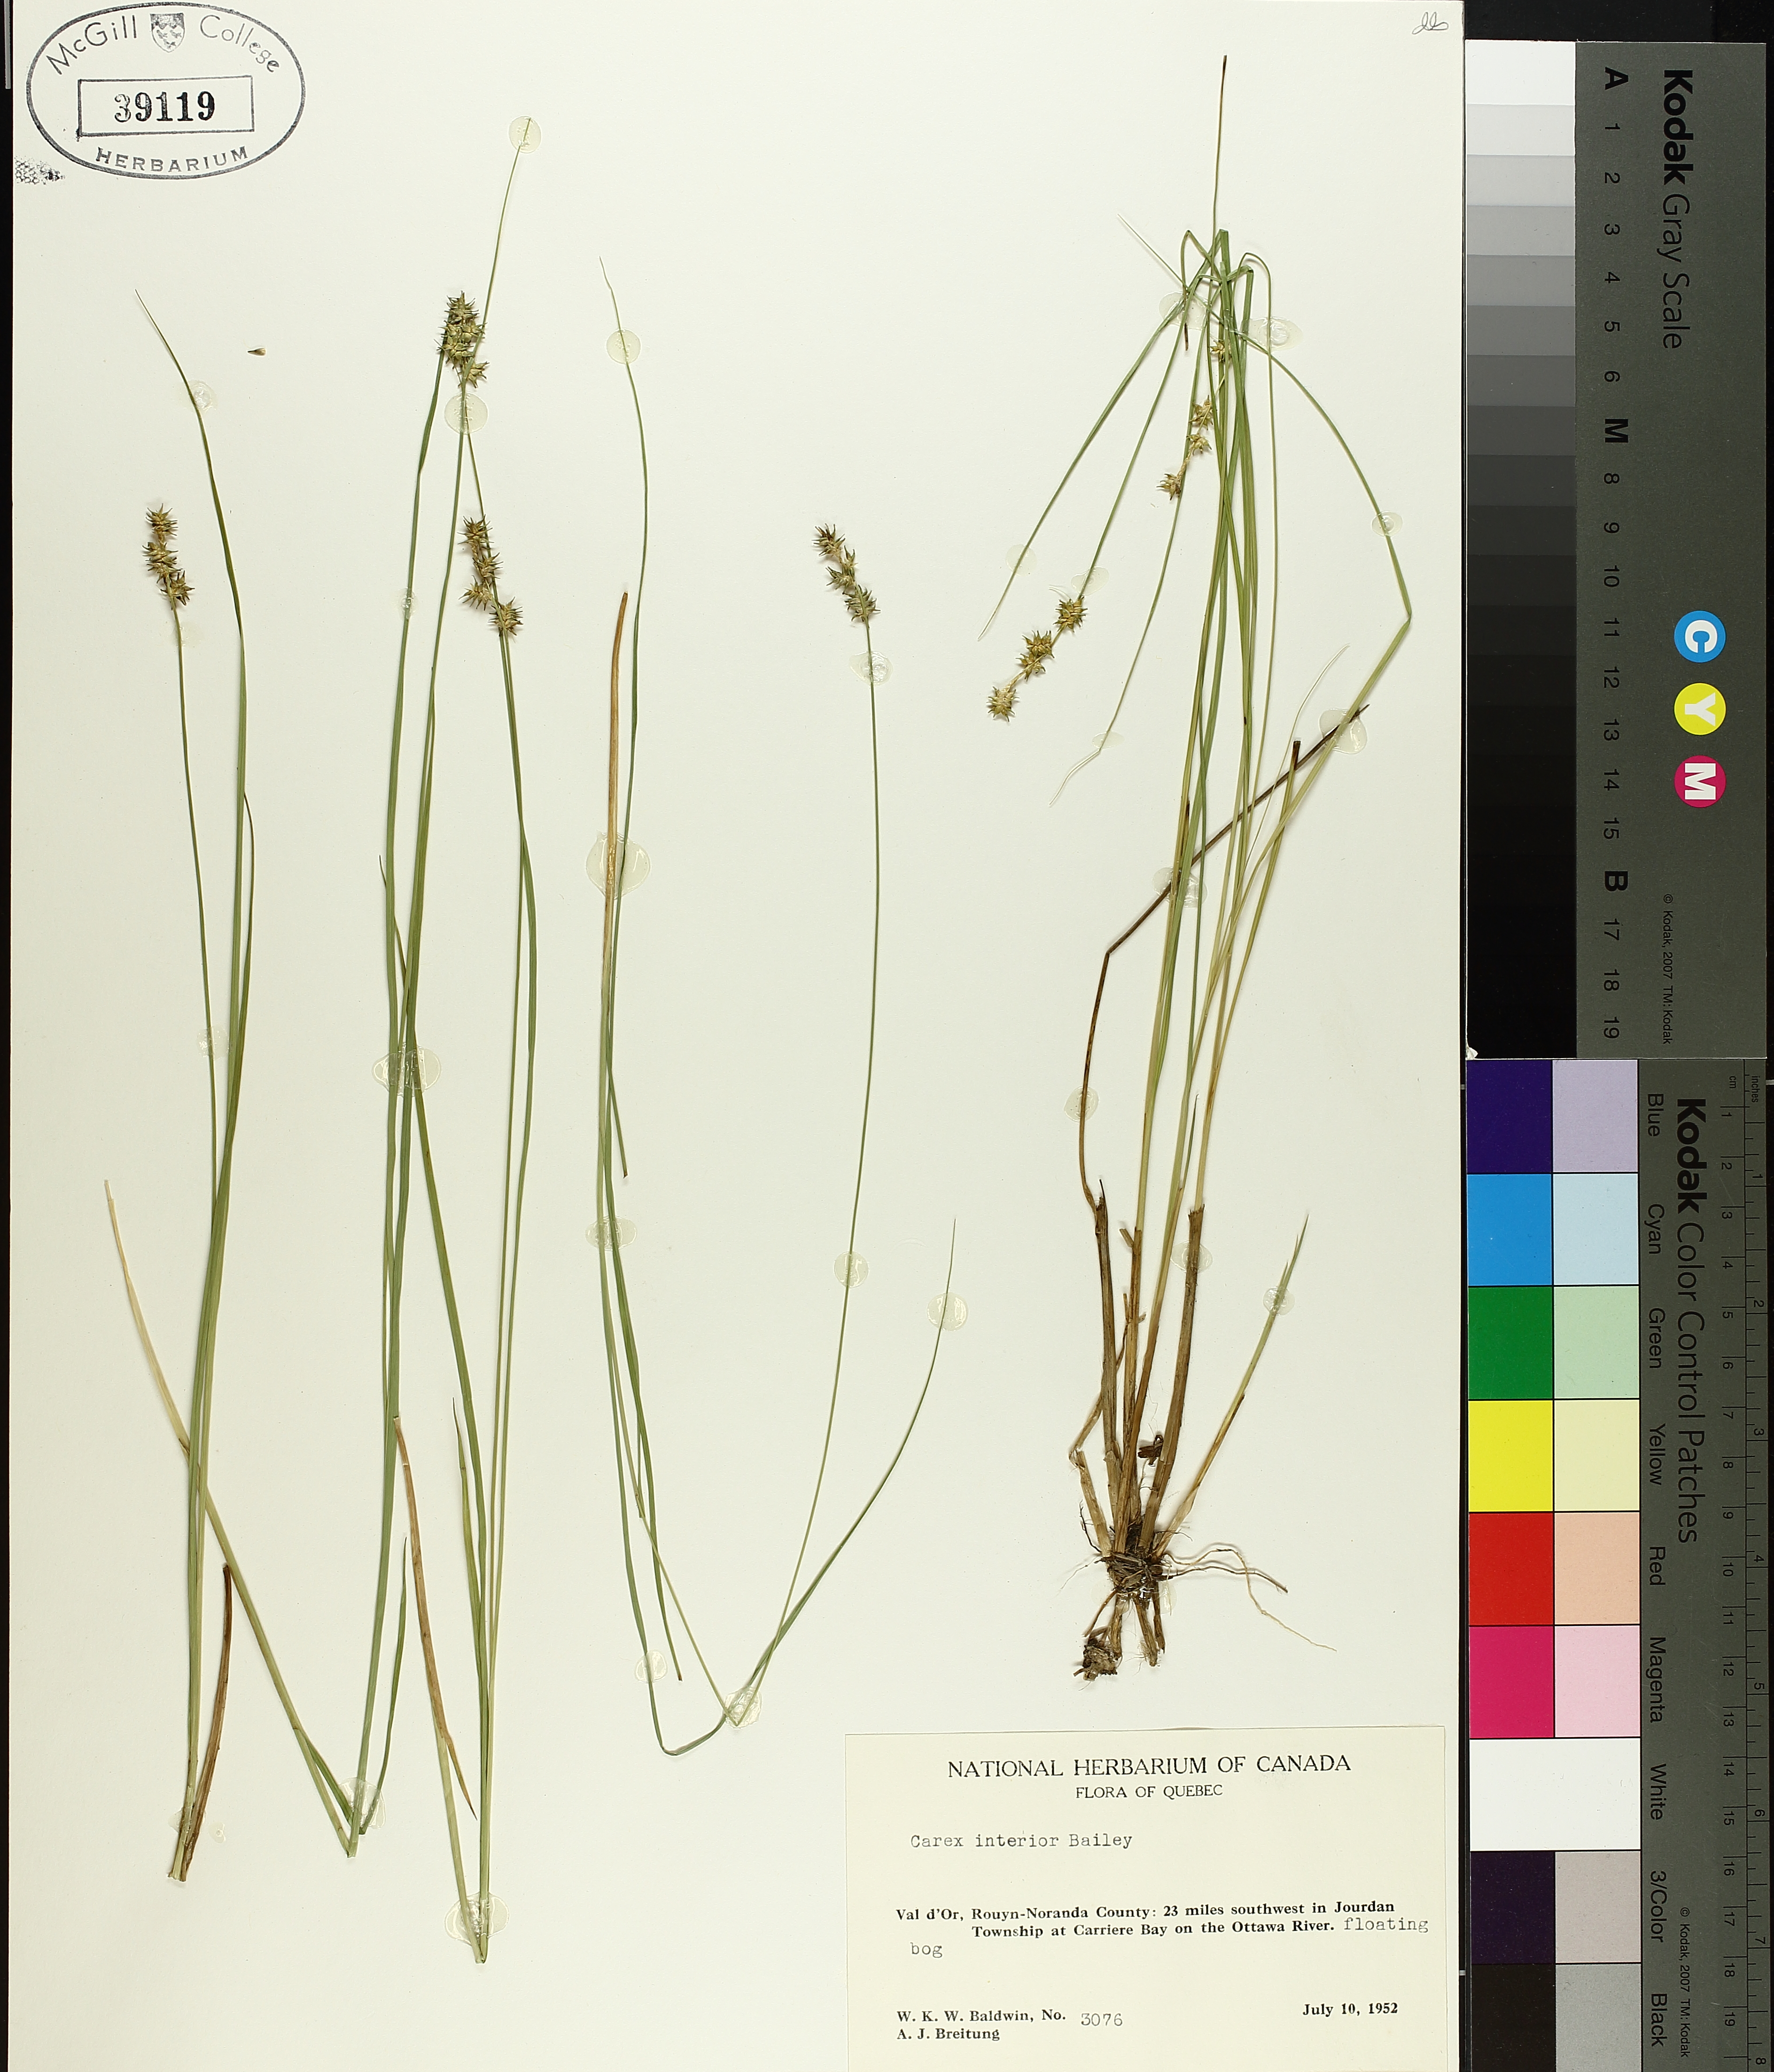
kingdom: Plantae
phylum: Tracheophyta
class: Liliopsida
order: Poales
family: Cyperaceae
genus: Carex
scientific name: Carex interior
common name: Inland sedge
